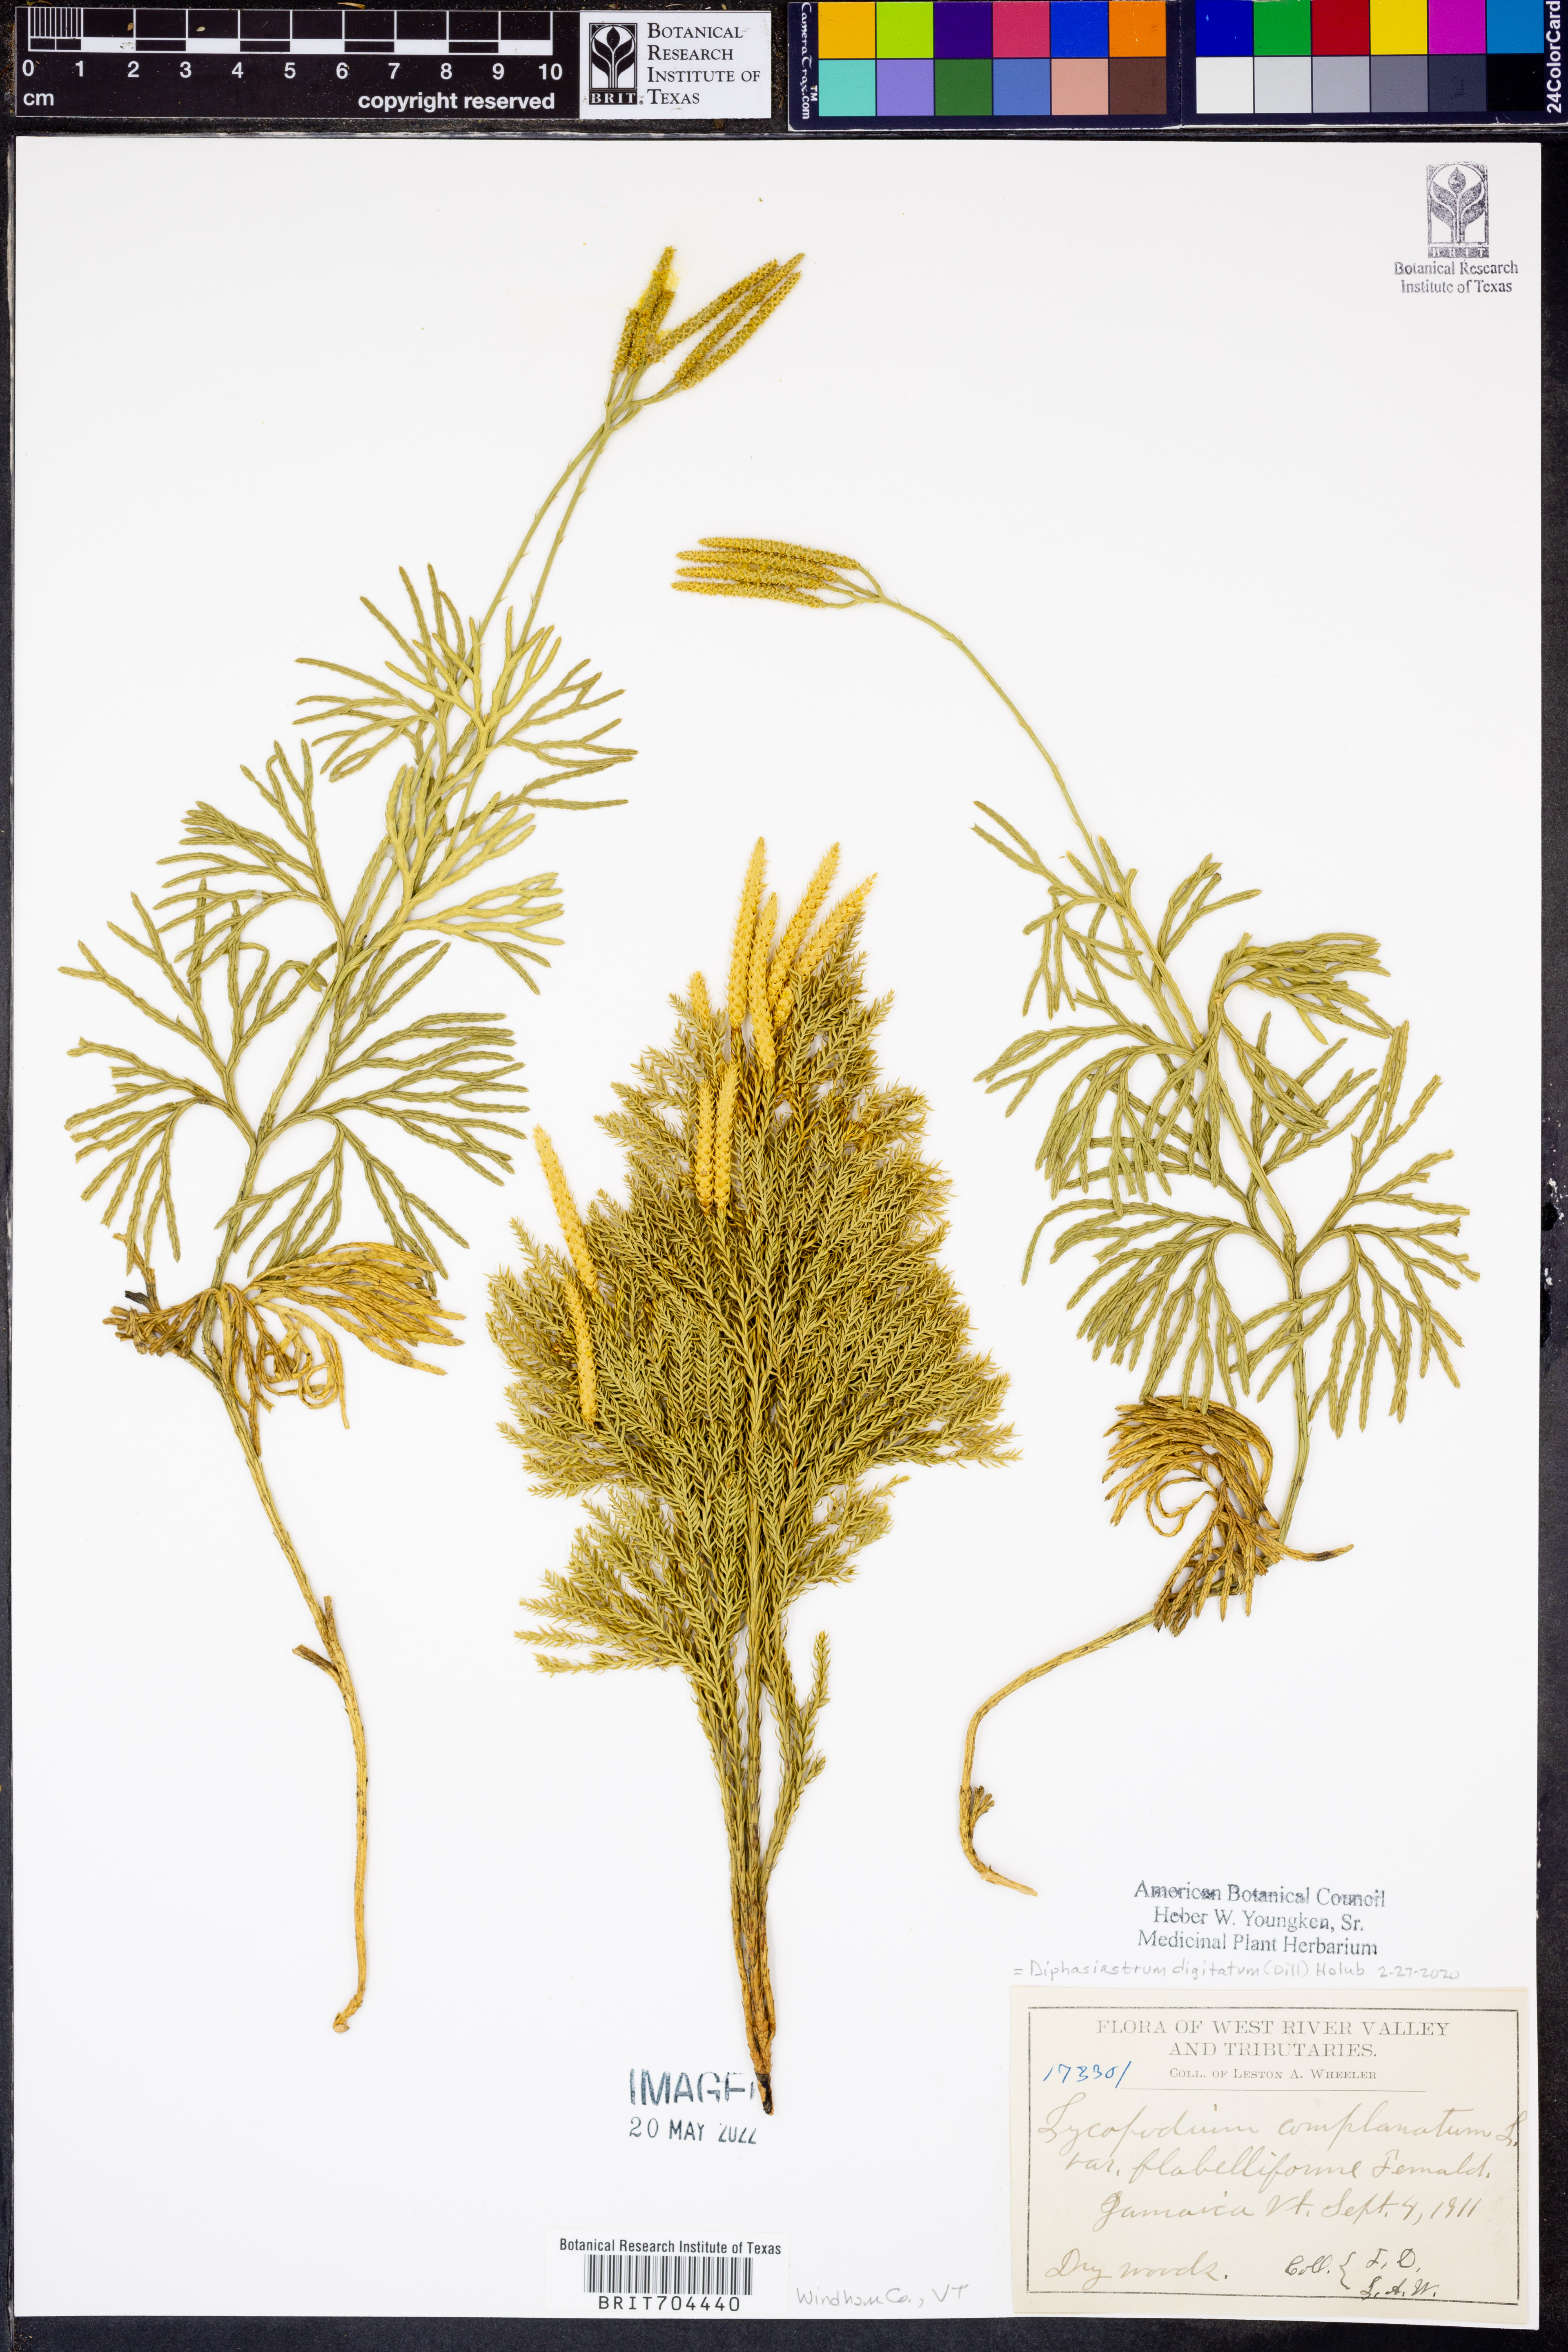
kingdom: Plantae
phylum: Tracheophyta
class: Lycopodiopsida
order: Lycopodiales
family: Lycopodiaceae
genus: Diphasiastrum
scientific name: Diphasiastrum digitatum
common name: Southern running-pine
